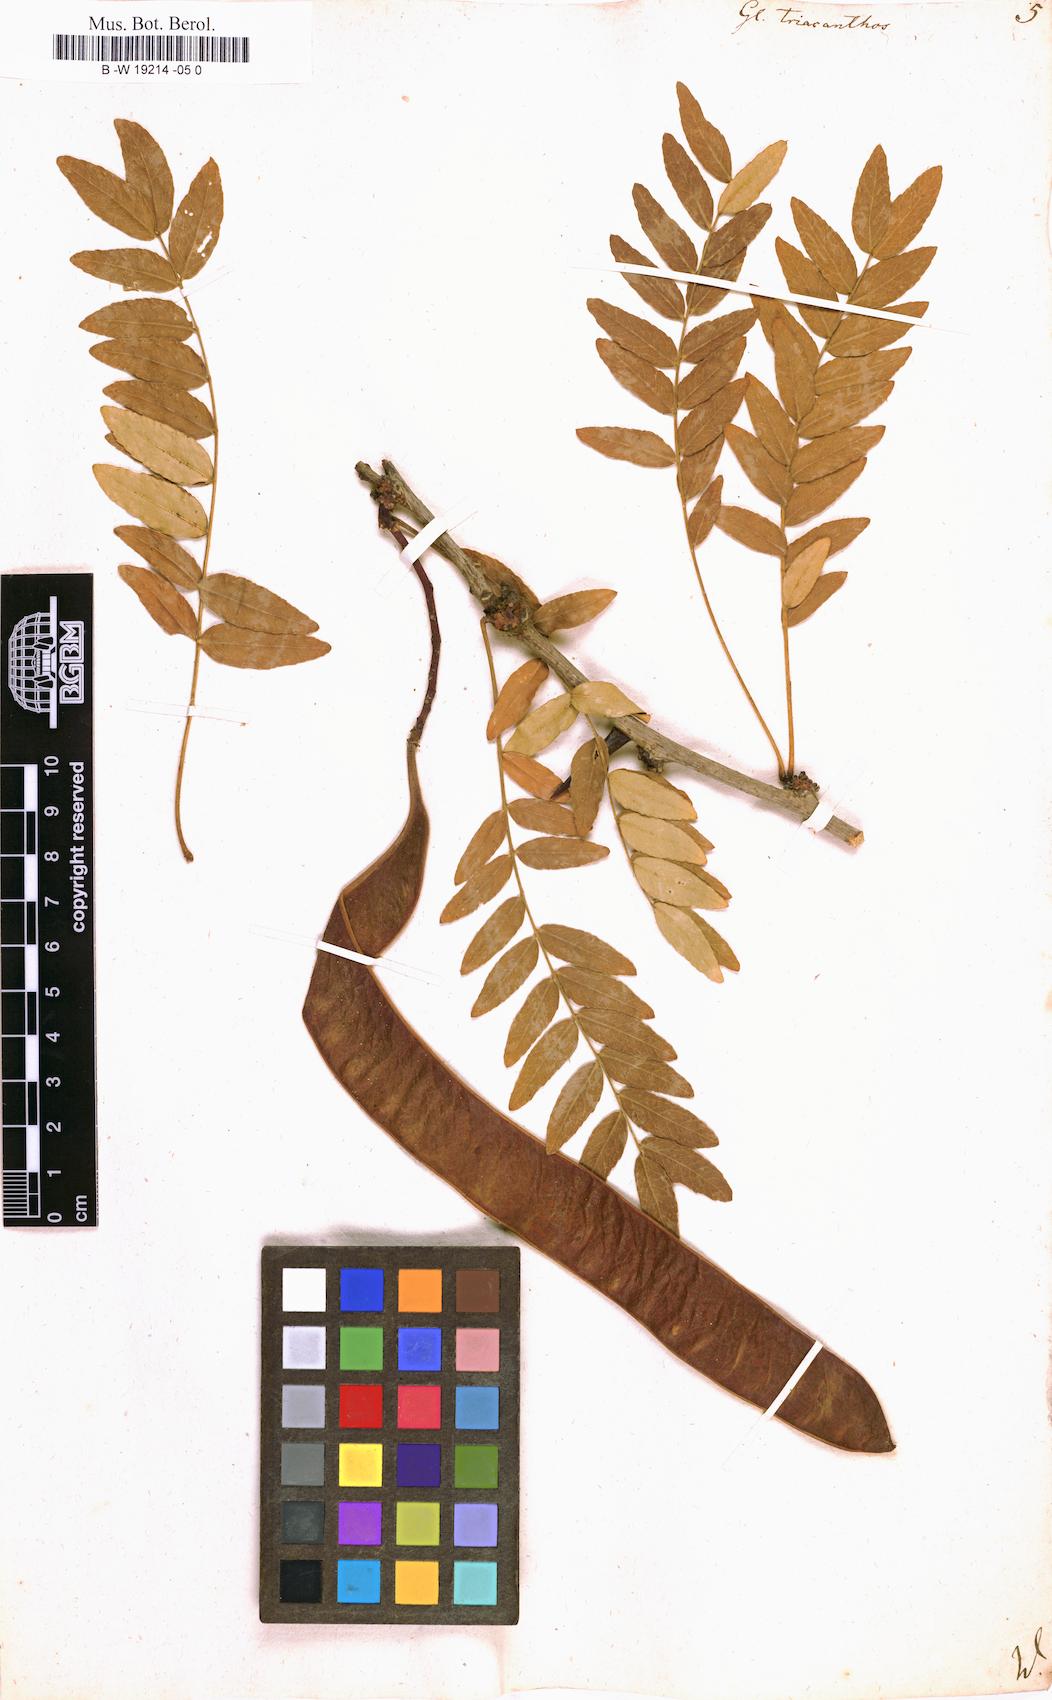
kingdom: Plantae
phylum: Tracheophyta
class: Magnoliopsida
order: Fabales
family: Fabaceae
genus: Gleditsia
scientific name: Gleditsia triacanthos
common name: Common honeylocust
